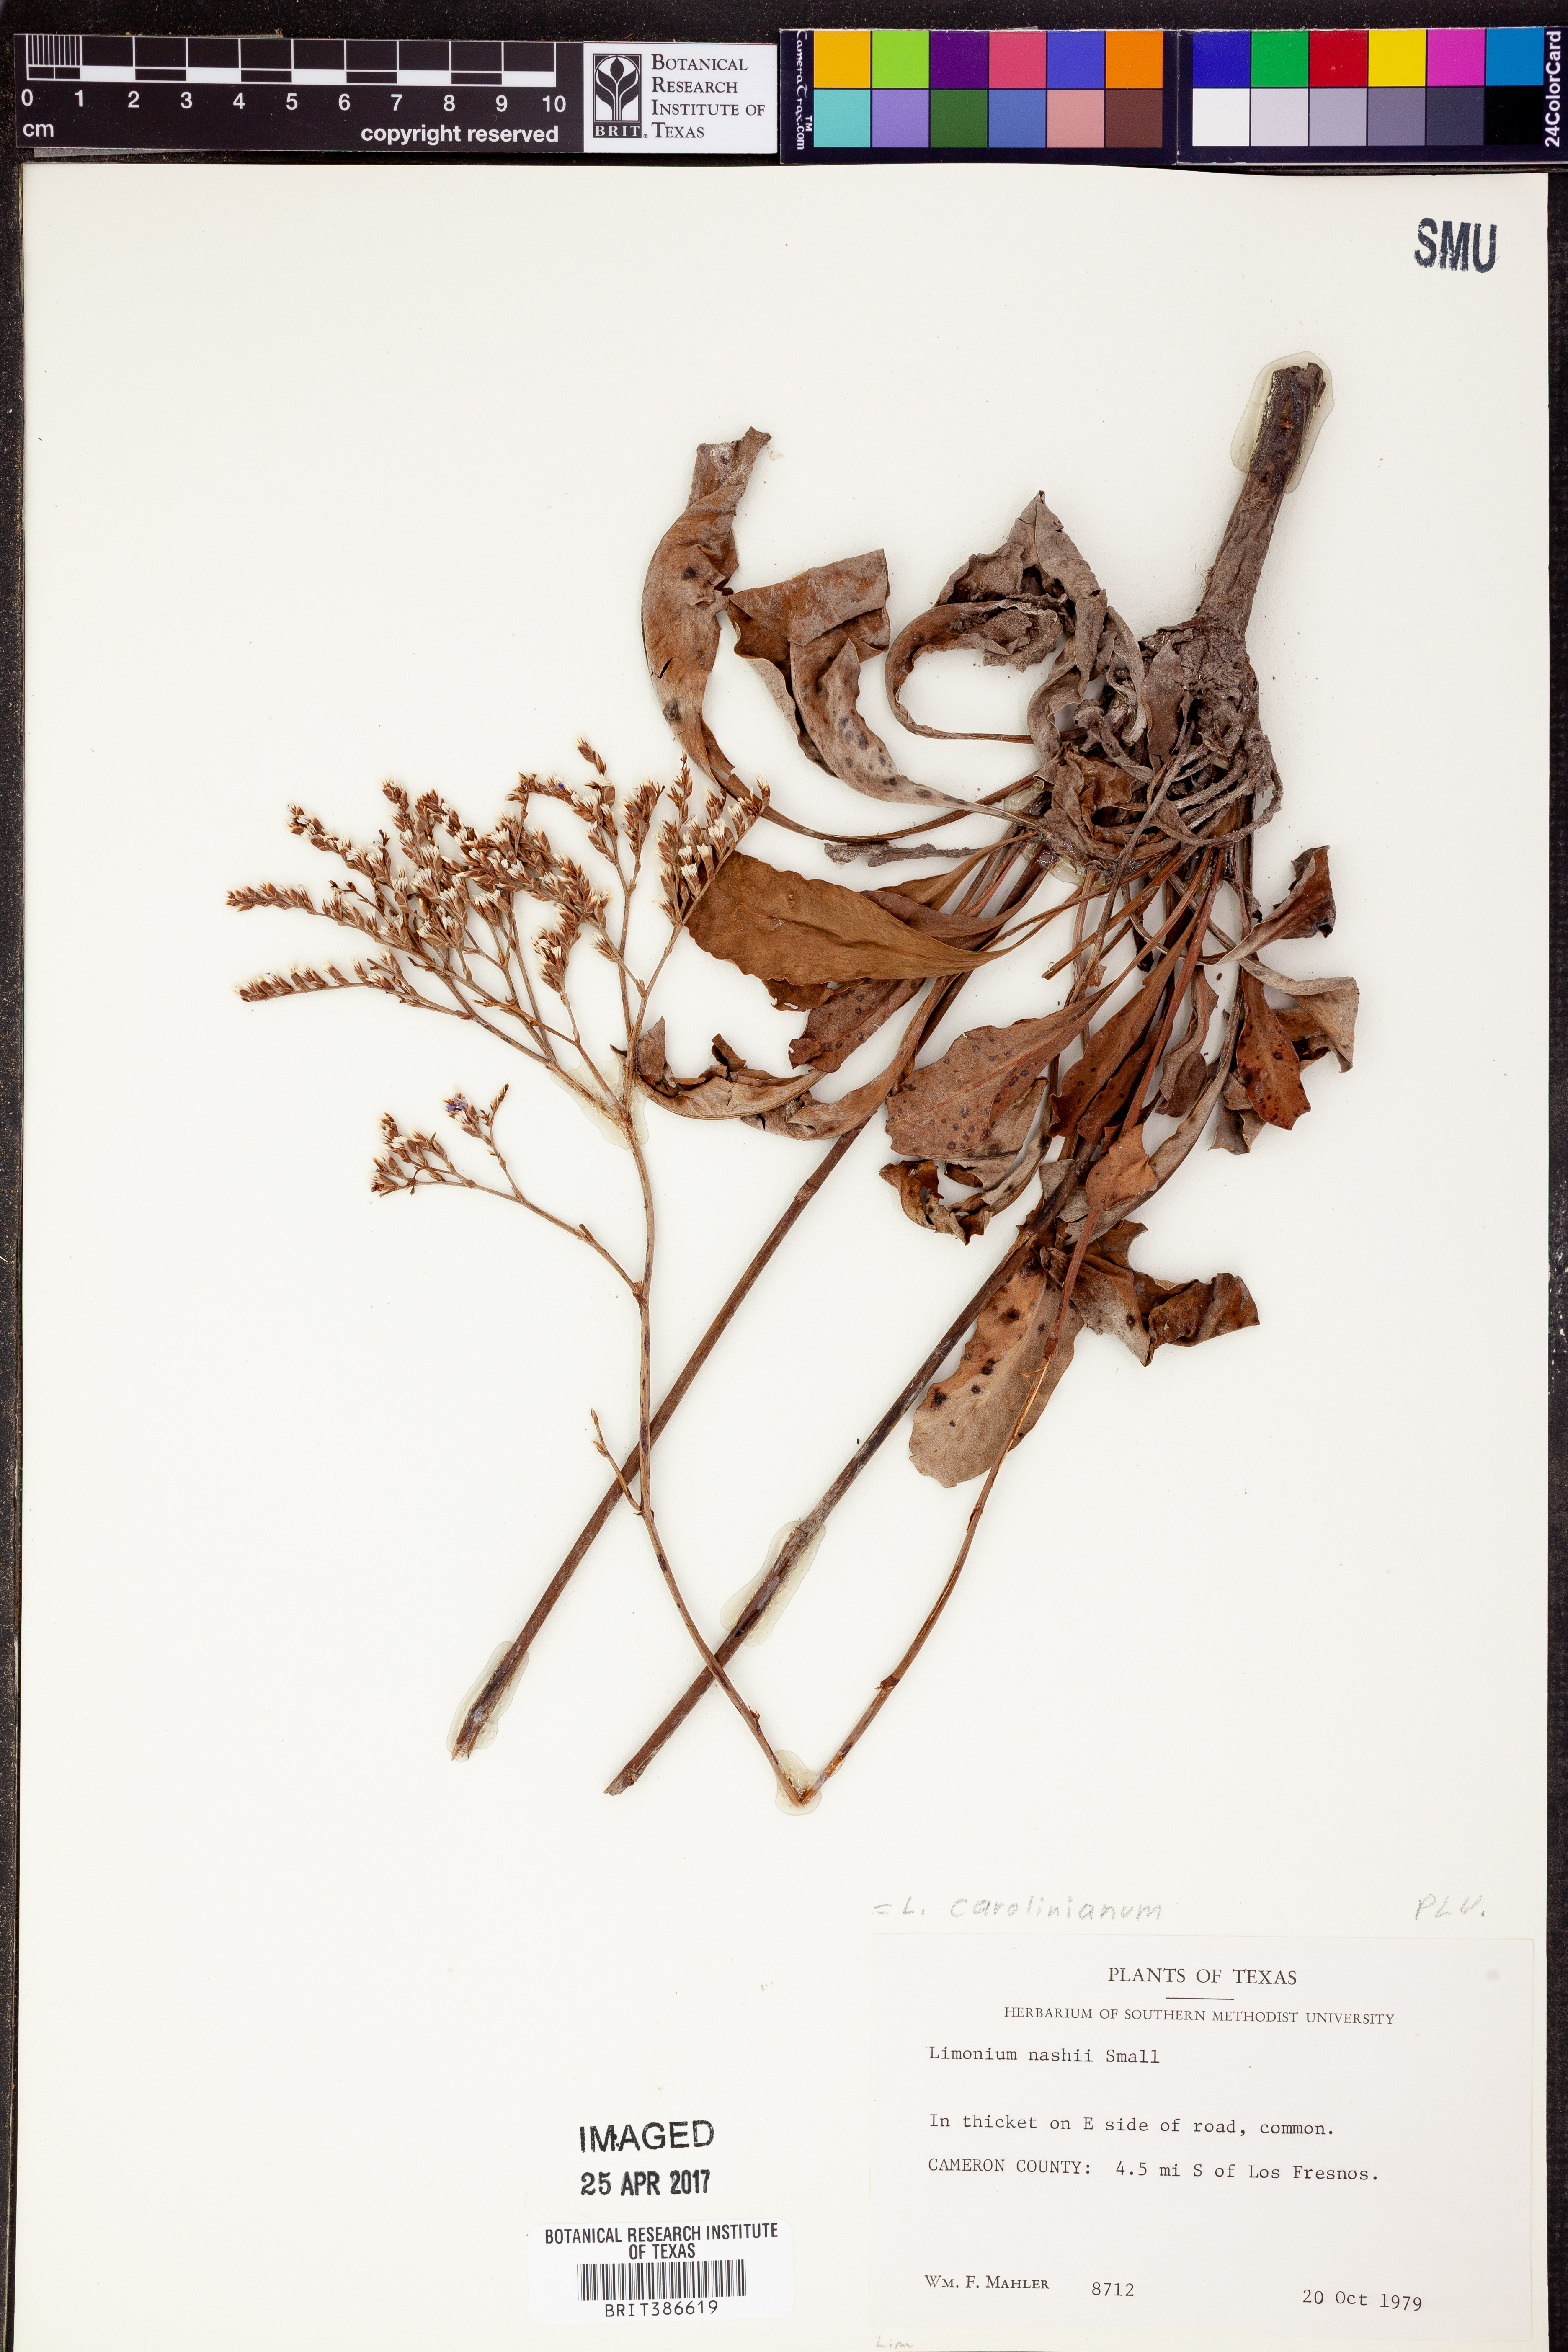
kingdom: Plantae
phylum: Tracheophyta
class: Magnoliopsida
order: Caryophyllales
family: Plumbaginaceae
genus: Limonium
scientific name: Limonium carolinianum
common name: Carolina sea lavender
